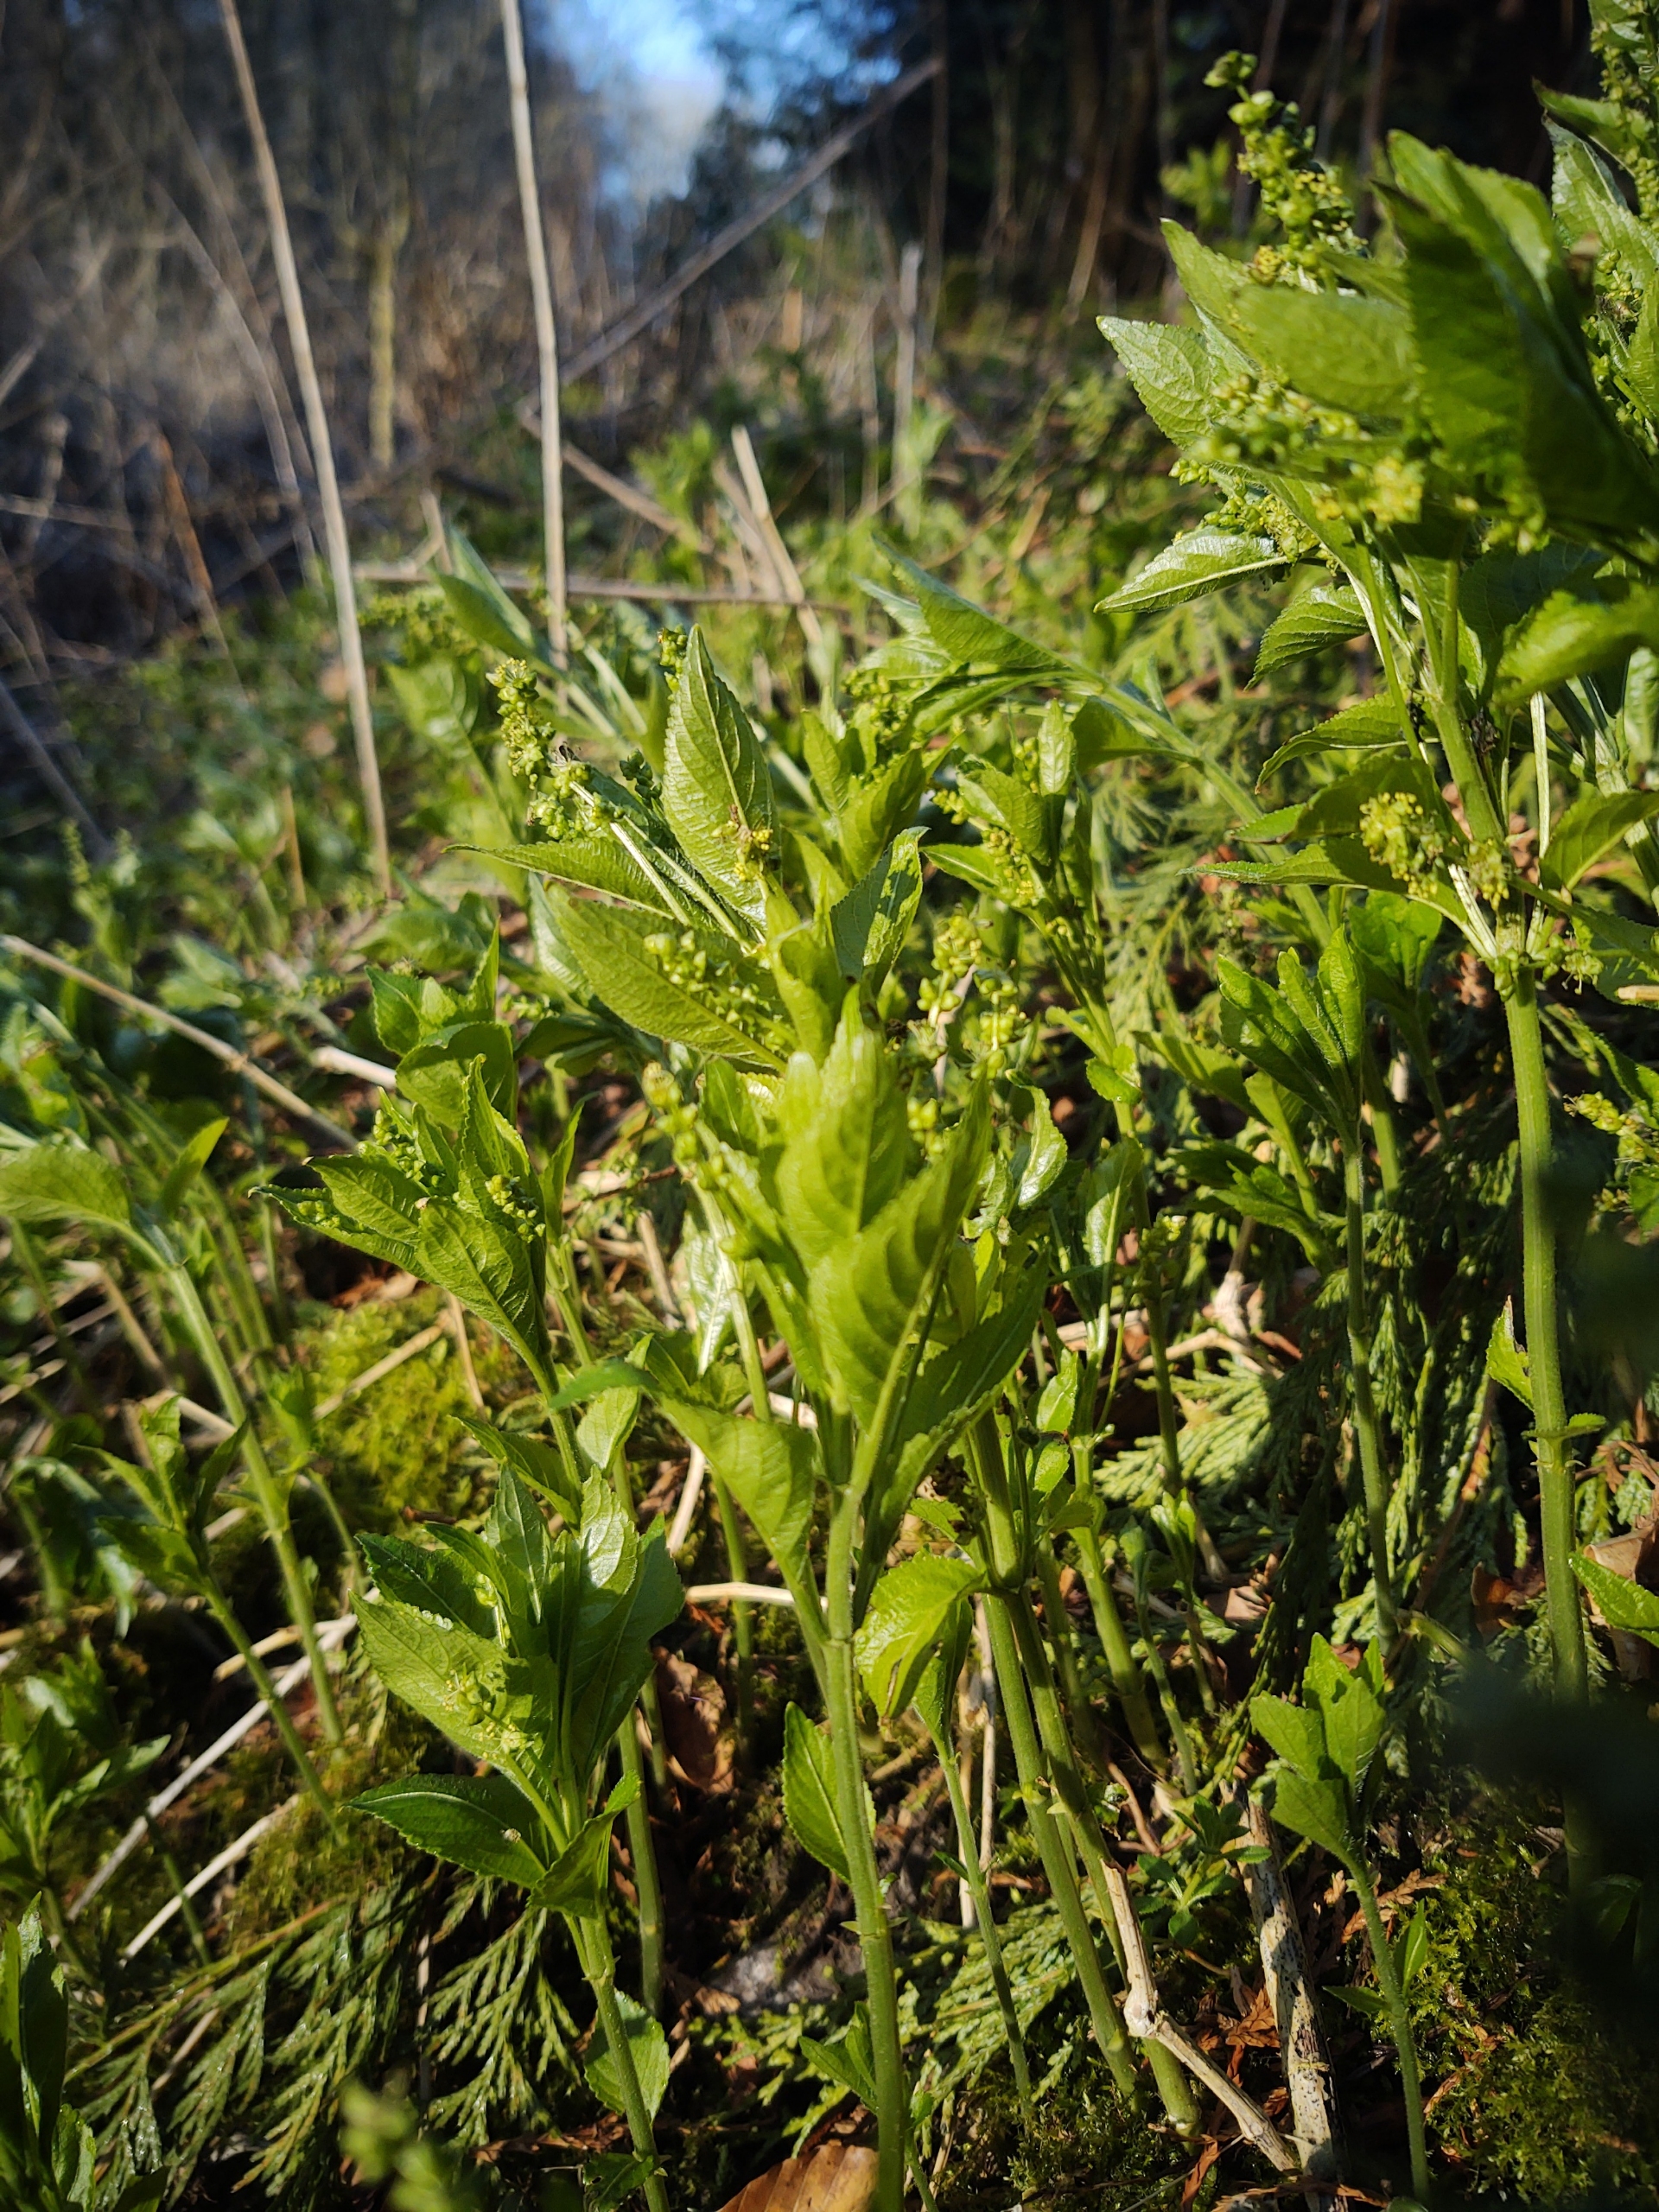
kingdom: Plantae
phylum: Tracheophyta
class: Magnoliopsida
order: Malpighiales
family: Euphorbiaceae
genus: Mercurialis
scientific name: Mercurialis perennis
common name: Almindelig bingelurt
